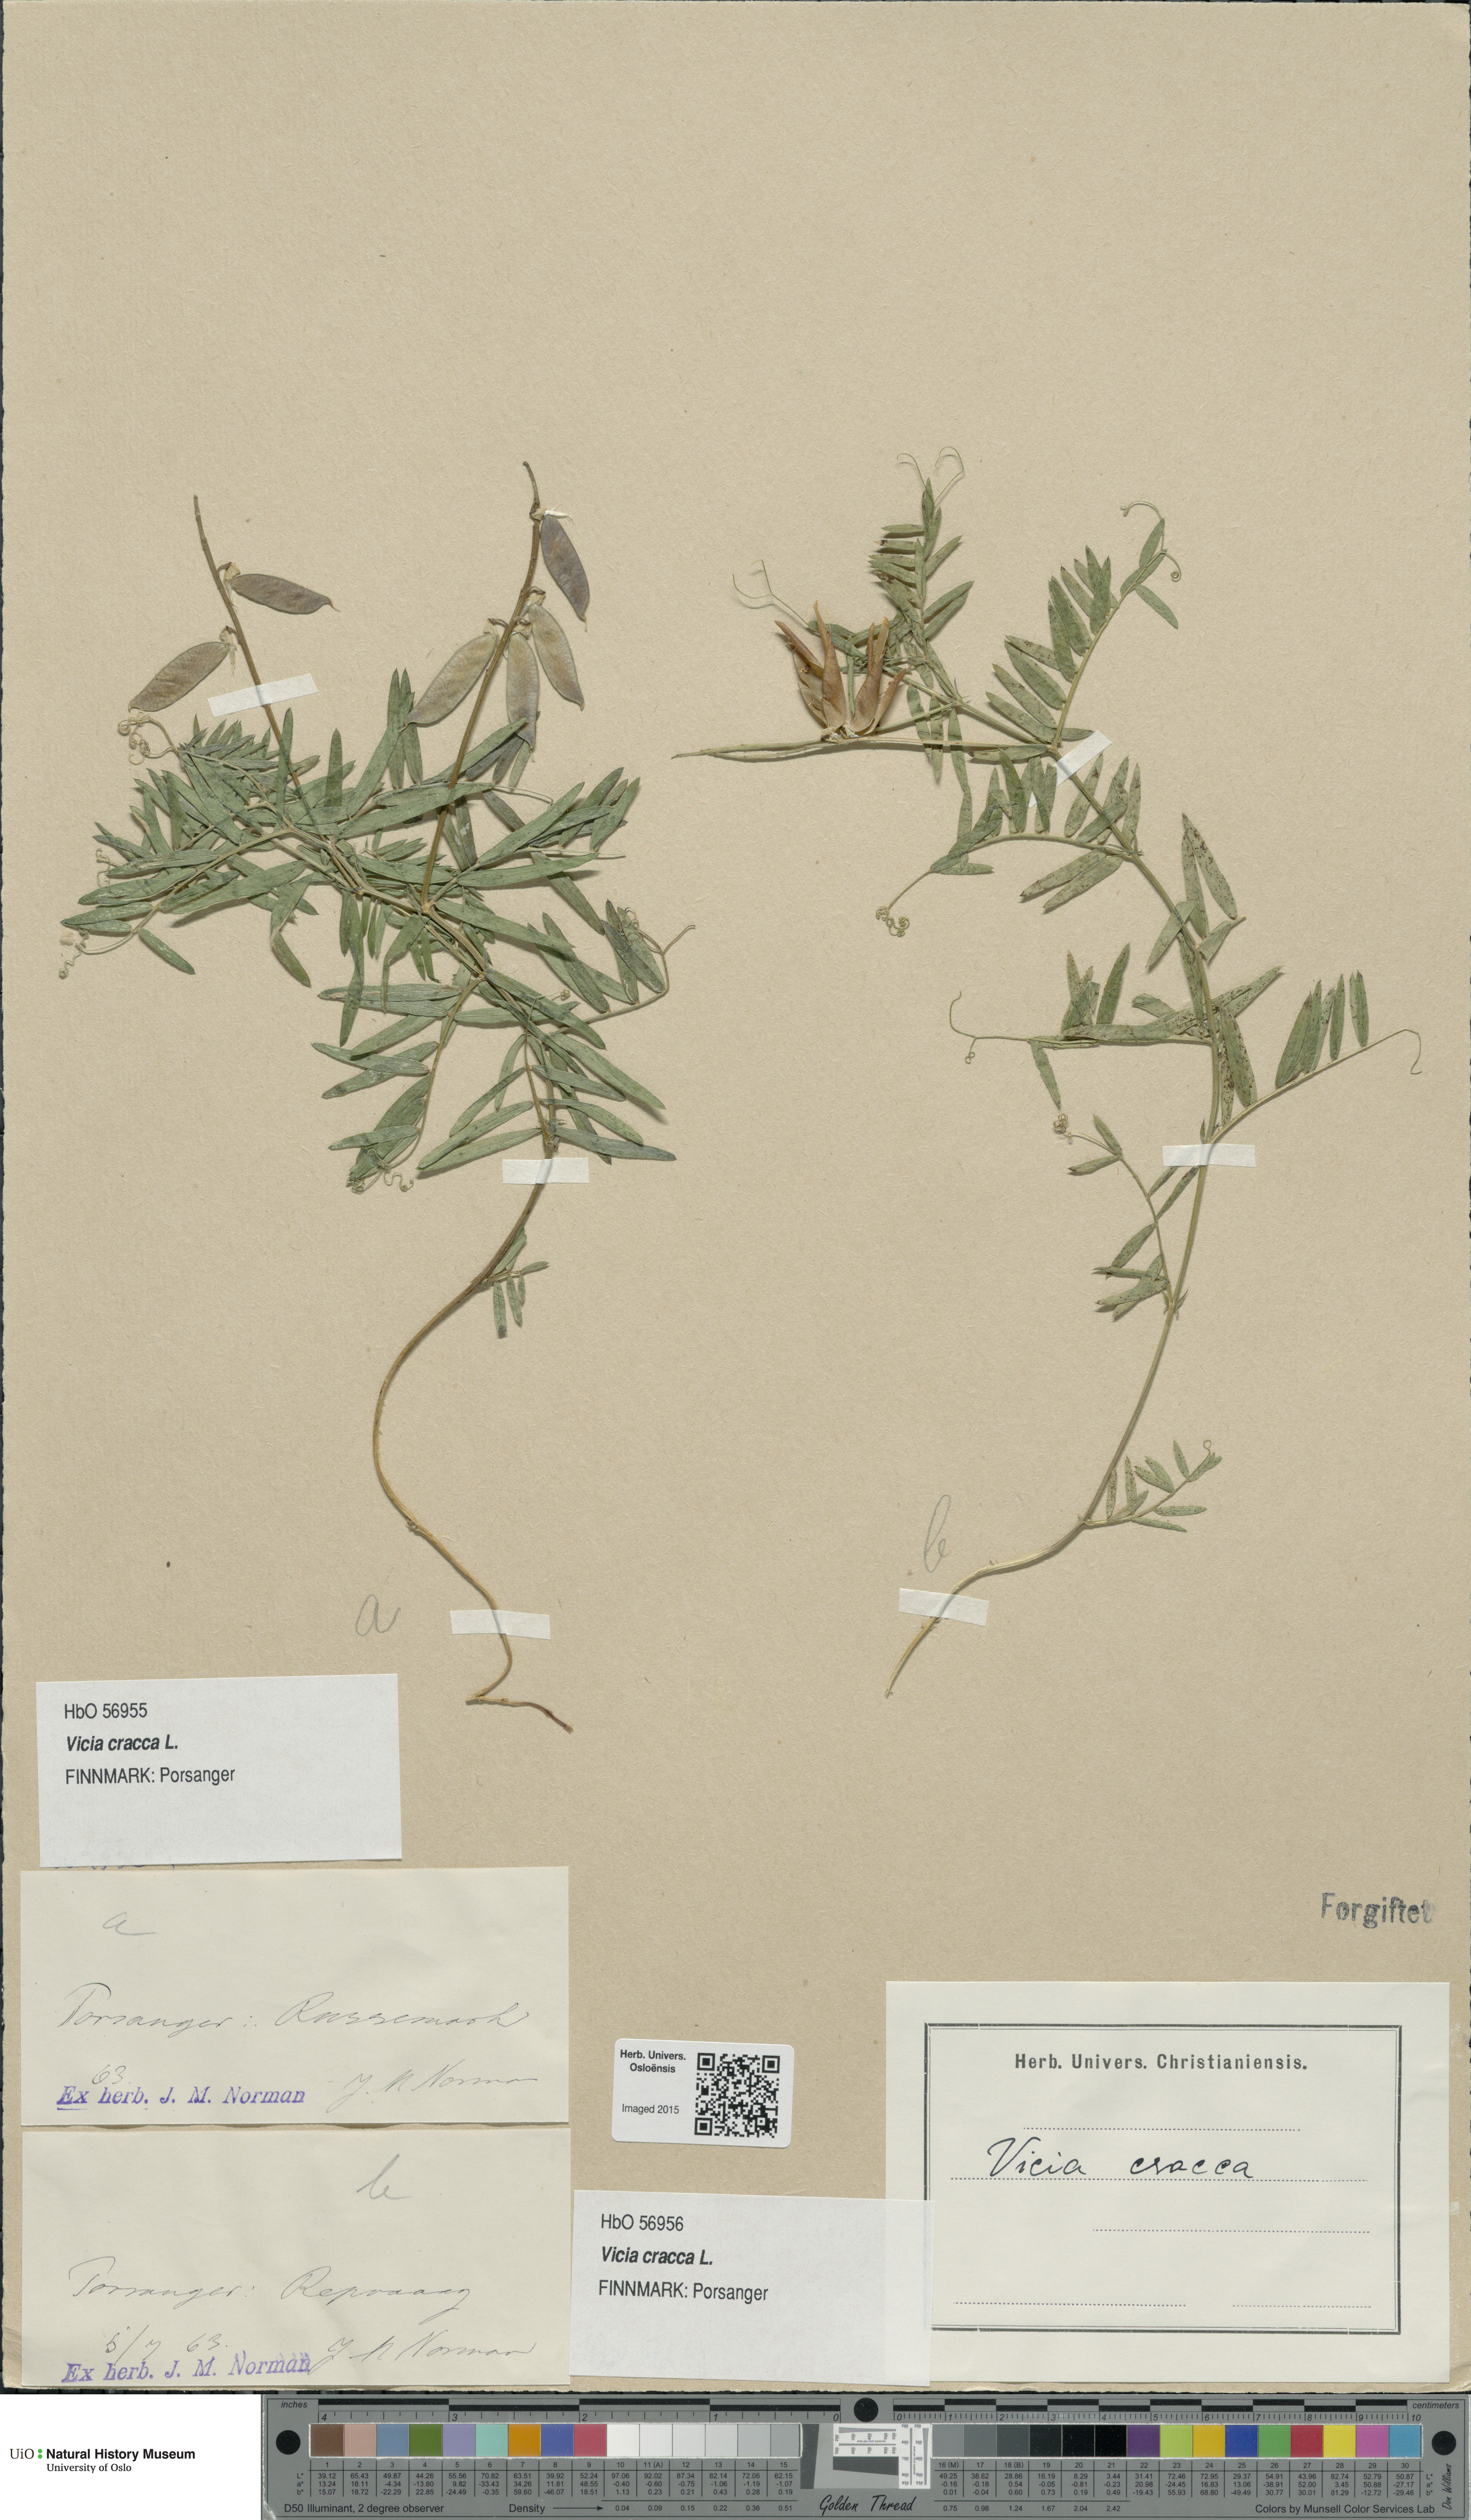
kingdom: Plantae
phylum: Tracheophyta
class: Magnoliopsida
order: Fabales
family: Fabaceae
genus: Vicia
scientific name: Vicia cracca
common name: Bird vetch
